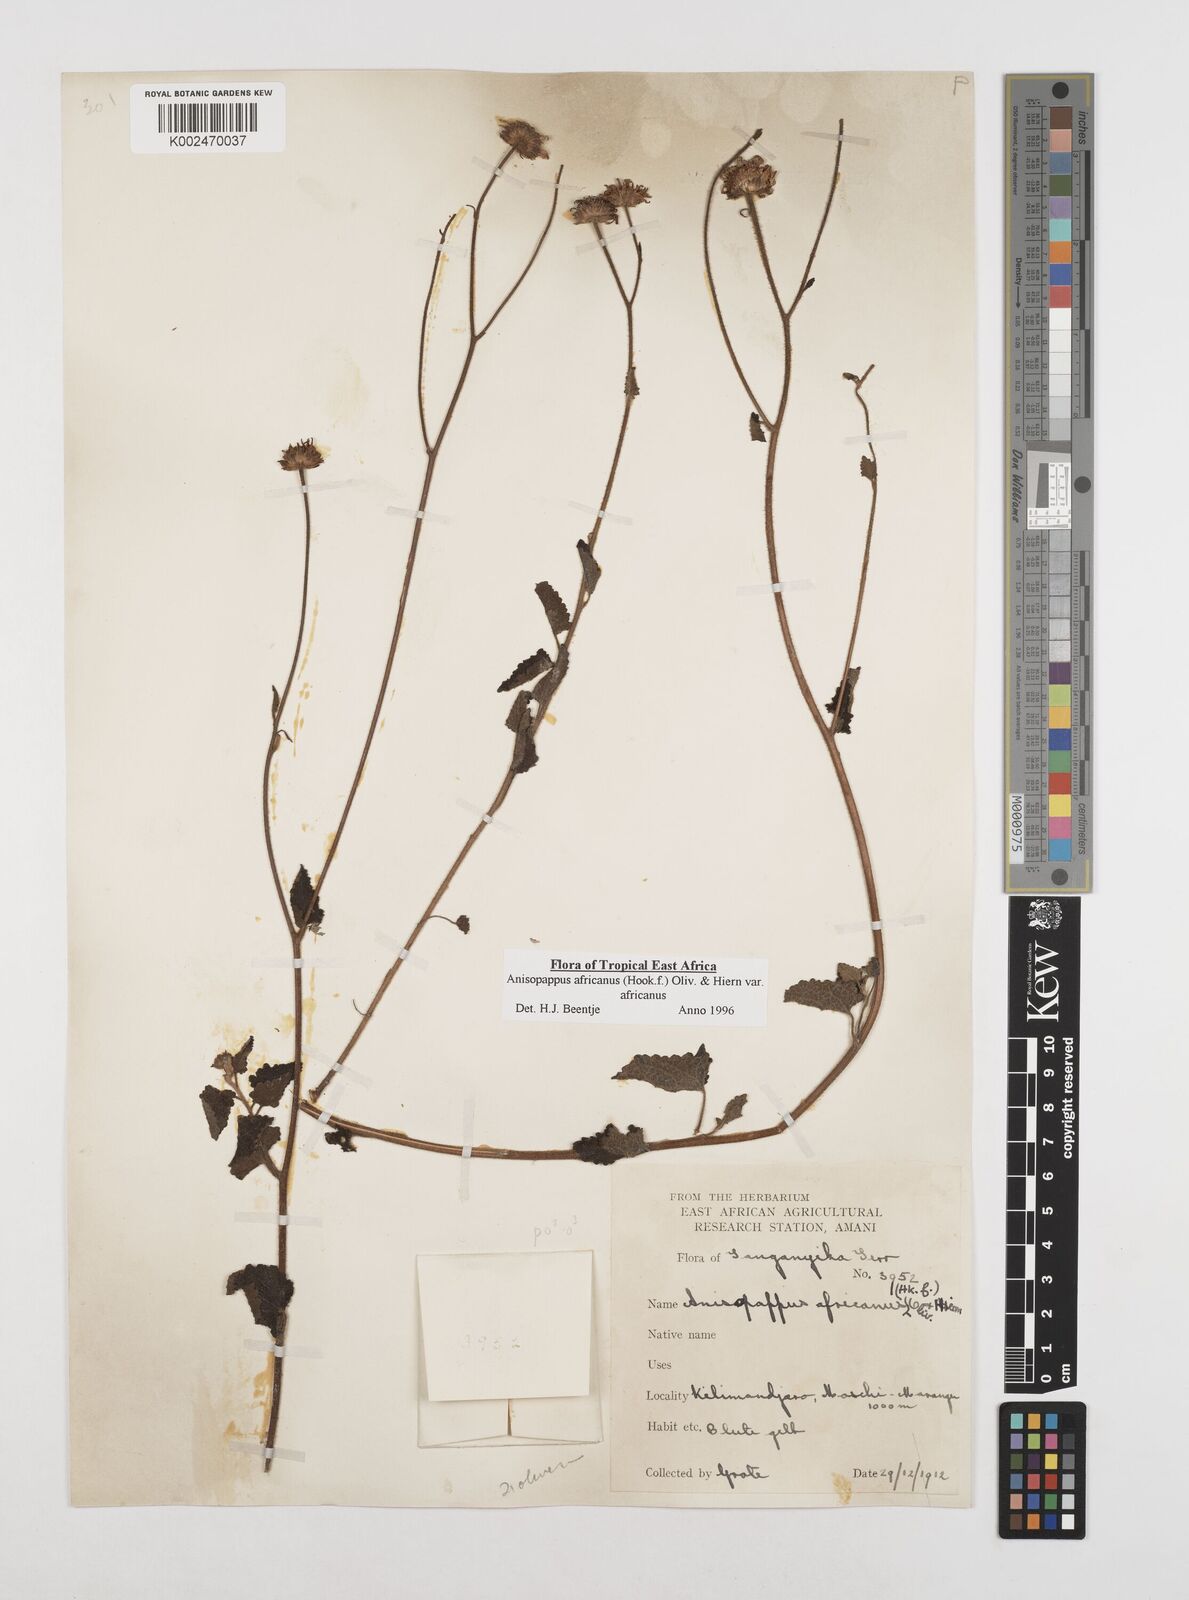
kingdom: Plantae
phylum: Tracheophyta
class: Magnoliopsida
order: Asterales
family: Asteraceae
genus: Anisopappus
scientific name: Anisopappus buchwaldii
